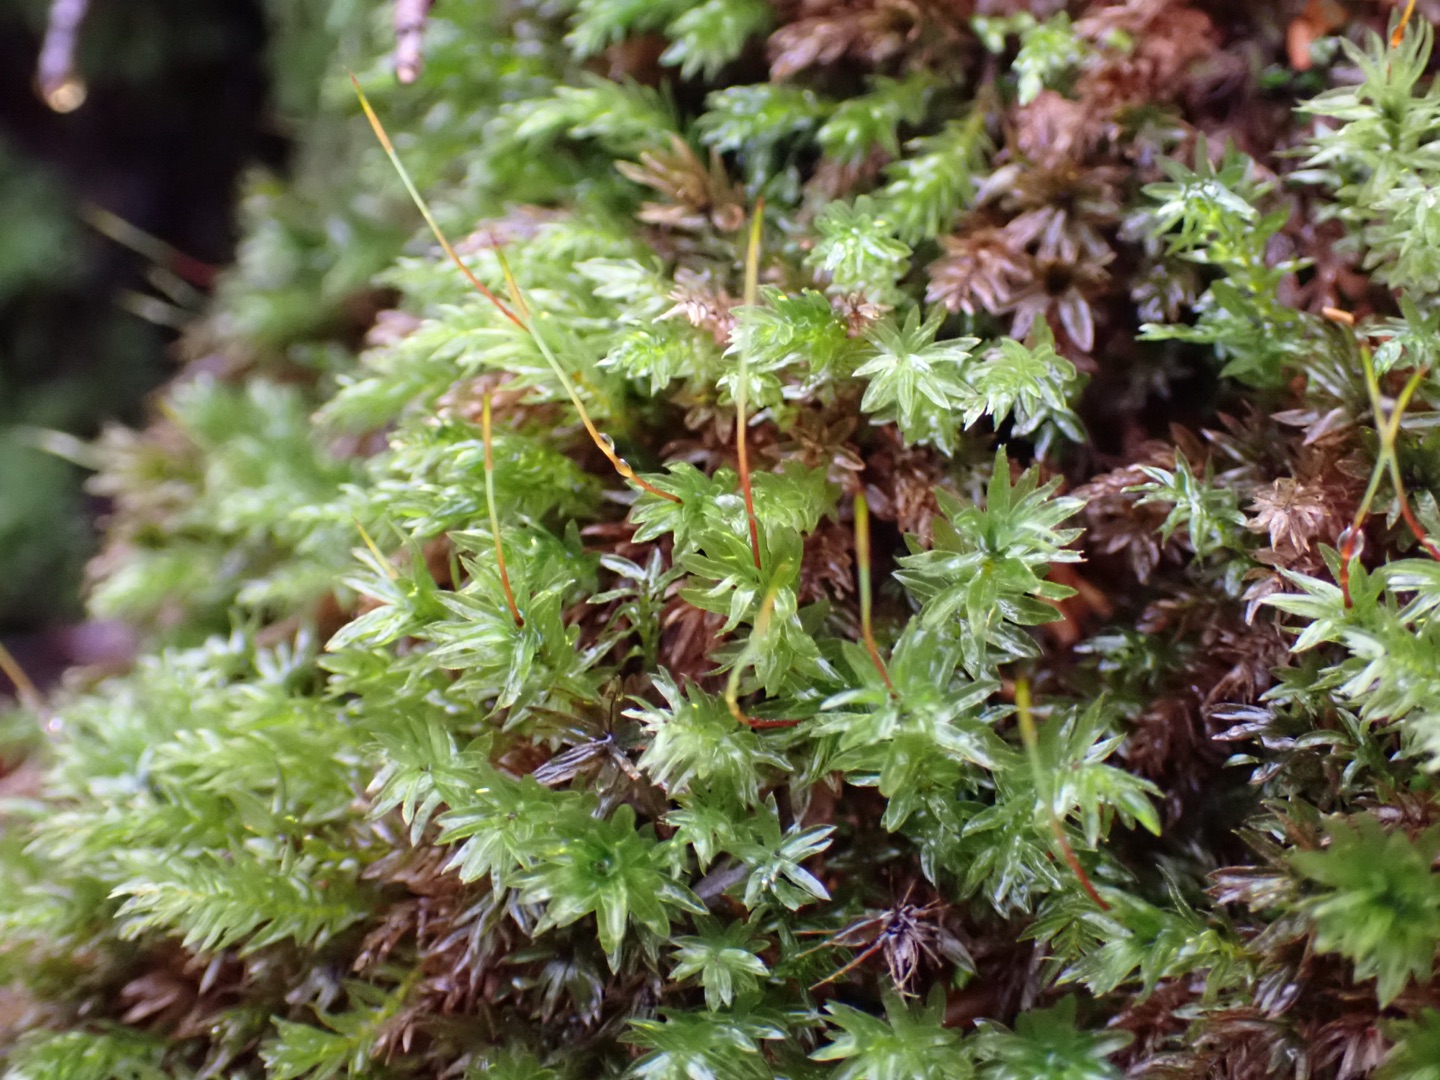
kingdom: Plantae
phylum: Bryophyta
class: Bryopsida
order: Bryales
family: Mniaceae
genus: Mnium
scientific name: Mnium hornum
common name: Brunfiltet stjernemos
